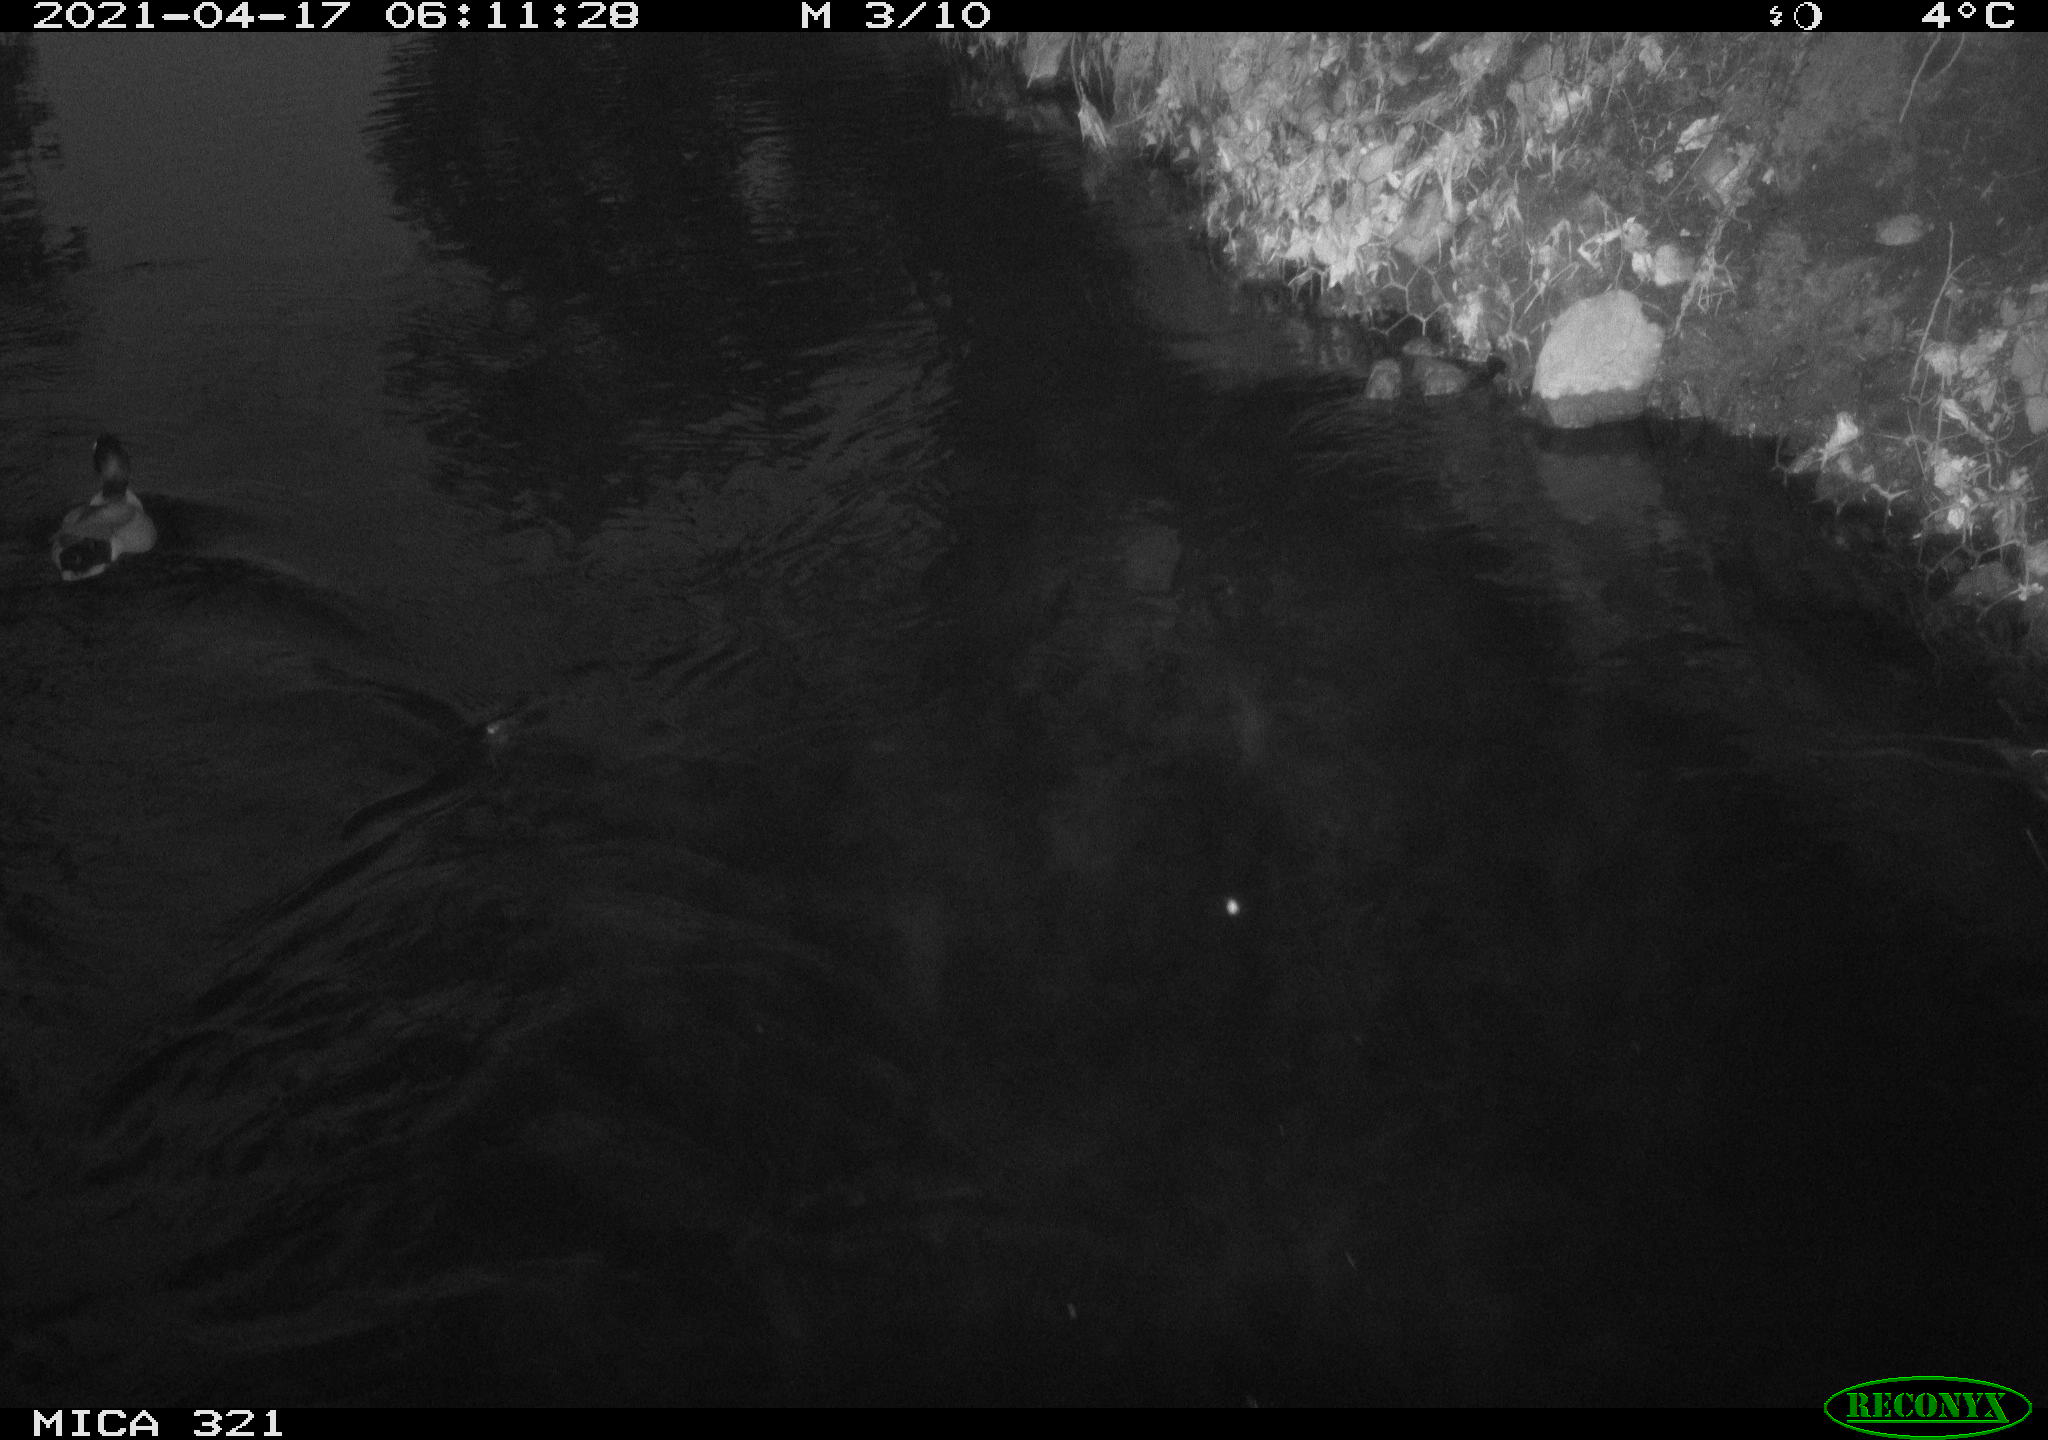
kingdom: Animalia
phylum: Chordata
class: Aves
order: Anseriformes
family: Anatidae
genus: Anas
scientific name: Anas
